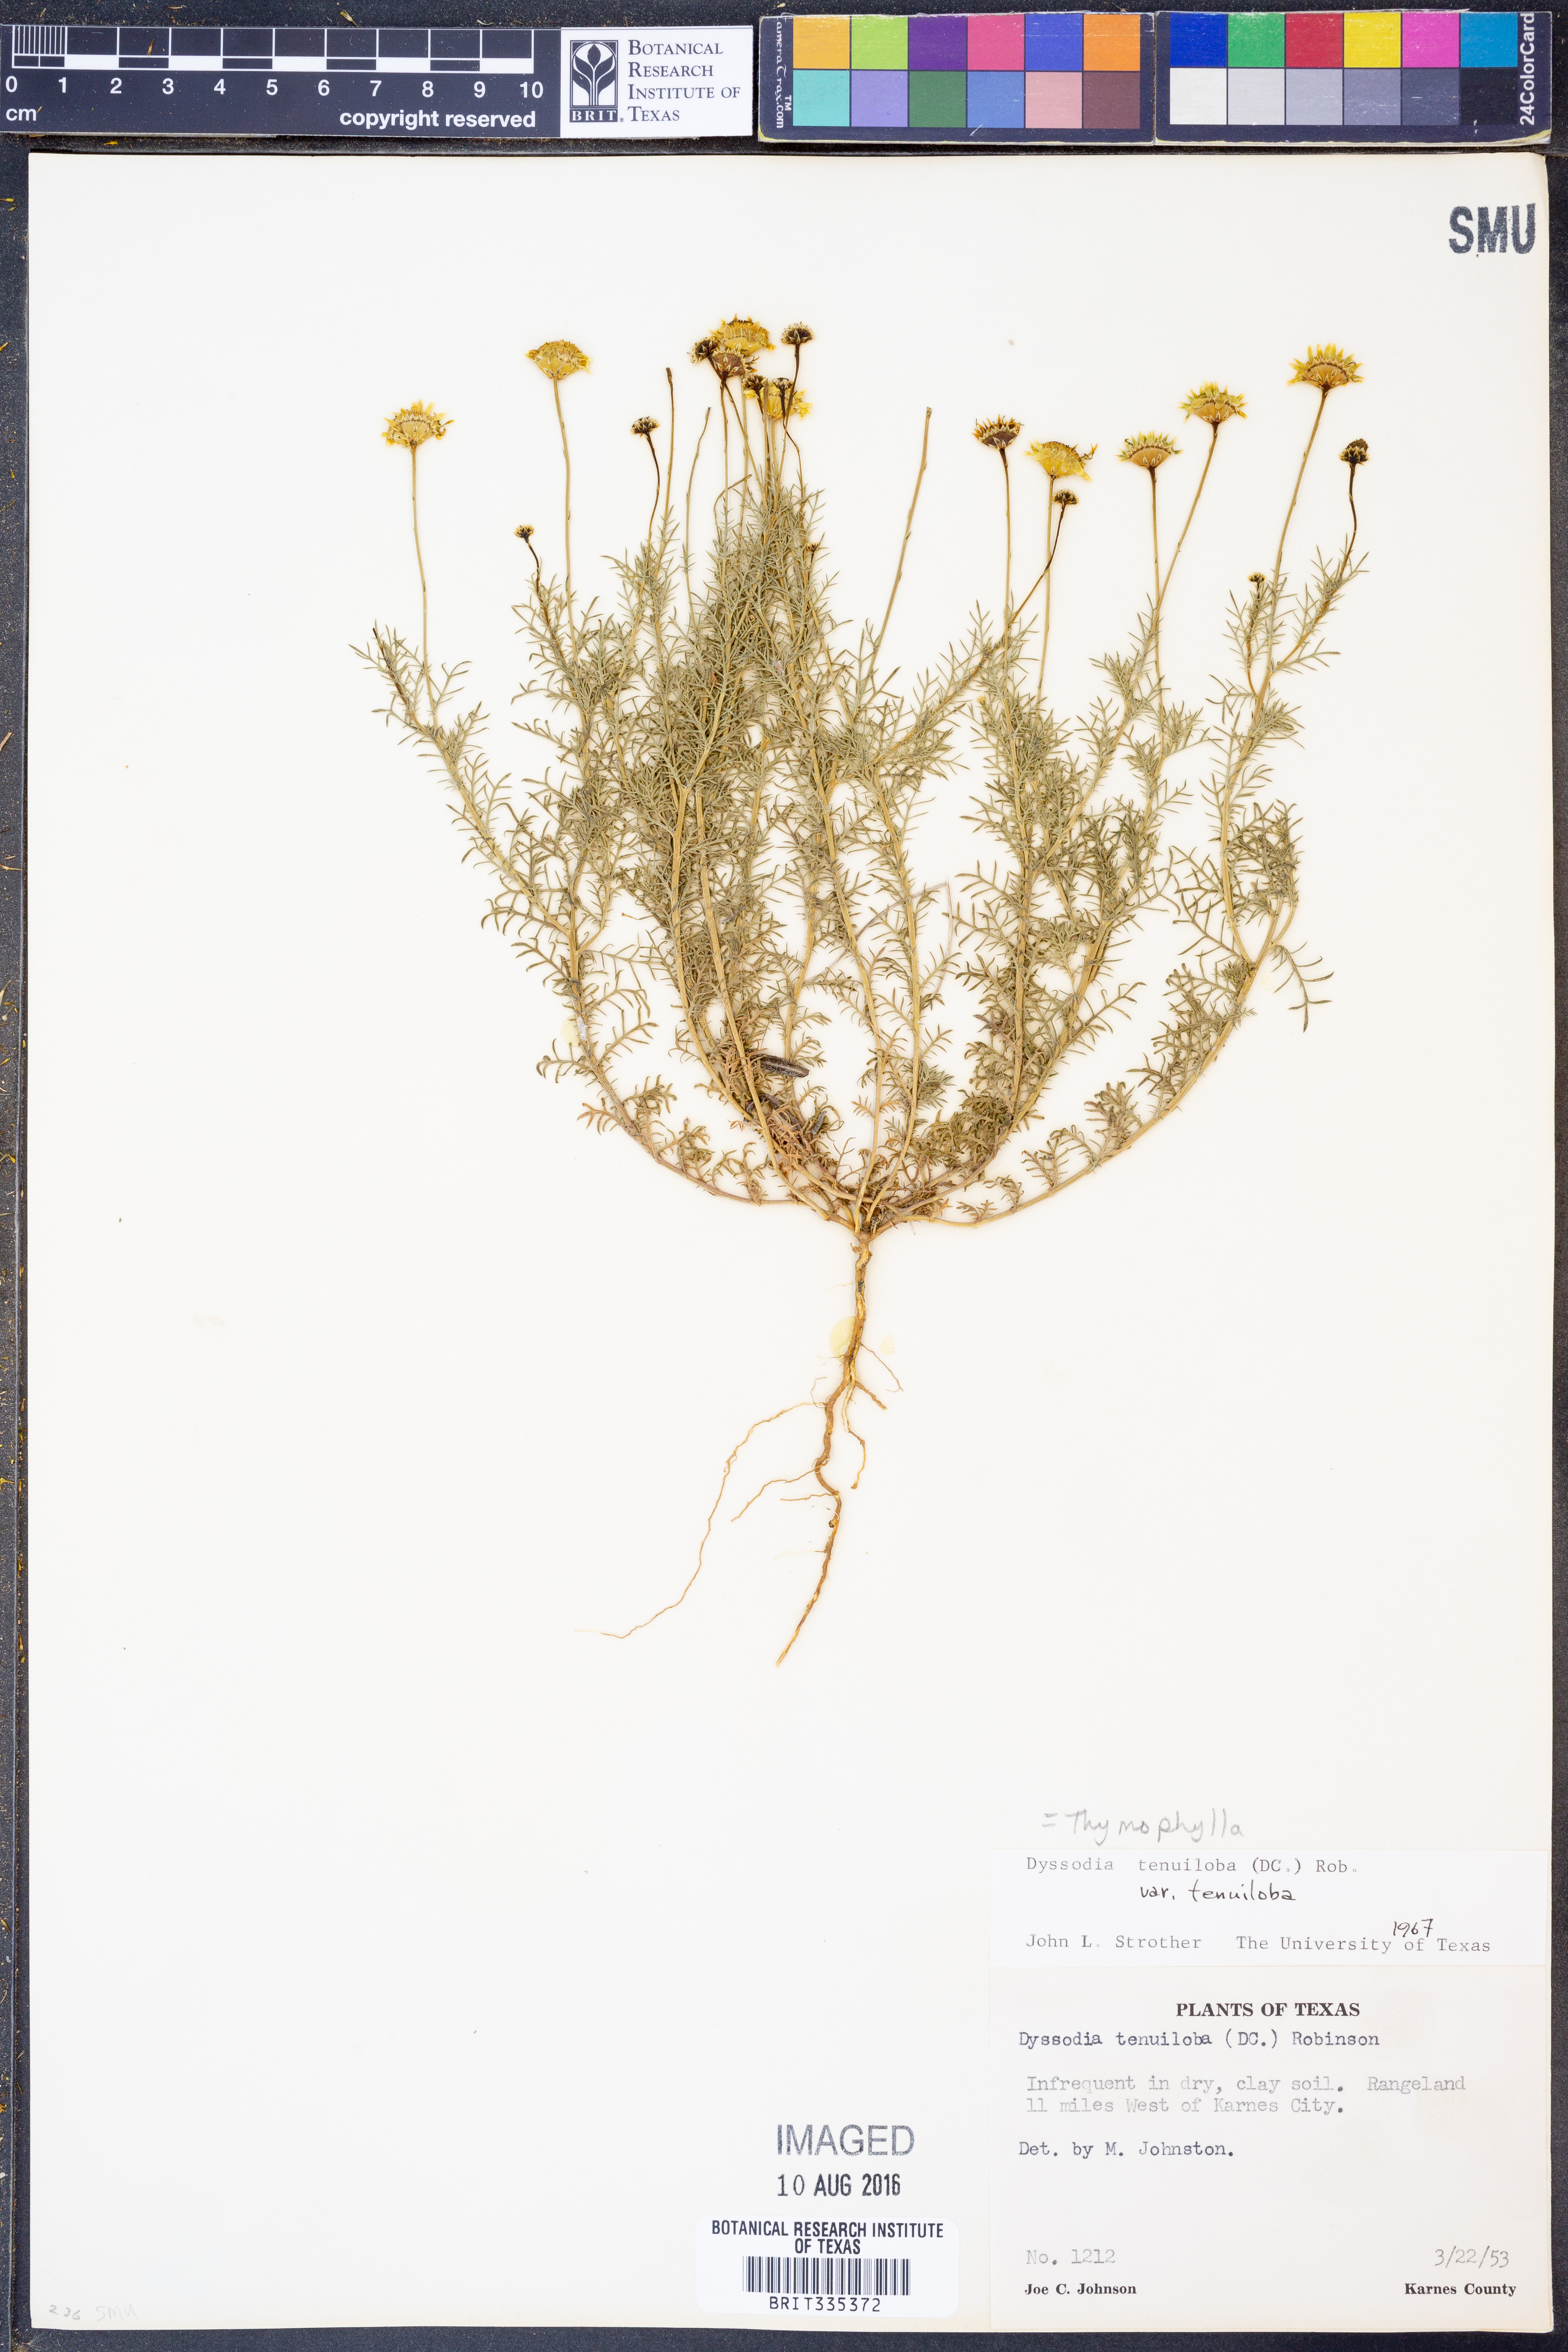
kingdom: Plantae
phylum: Tracheophyta
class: Magnoliopsida
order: Asterales
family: Asteraceae
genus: Thymophylla
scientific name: Thymophylla tenuiloba
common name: Dahlberg's daisy
